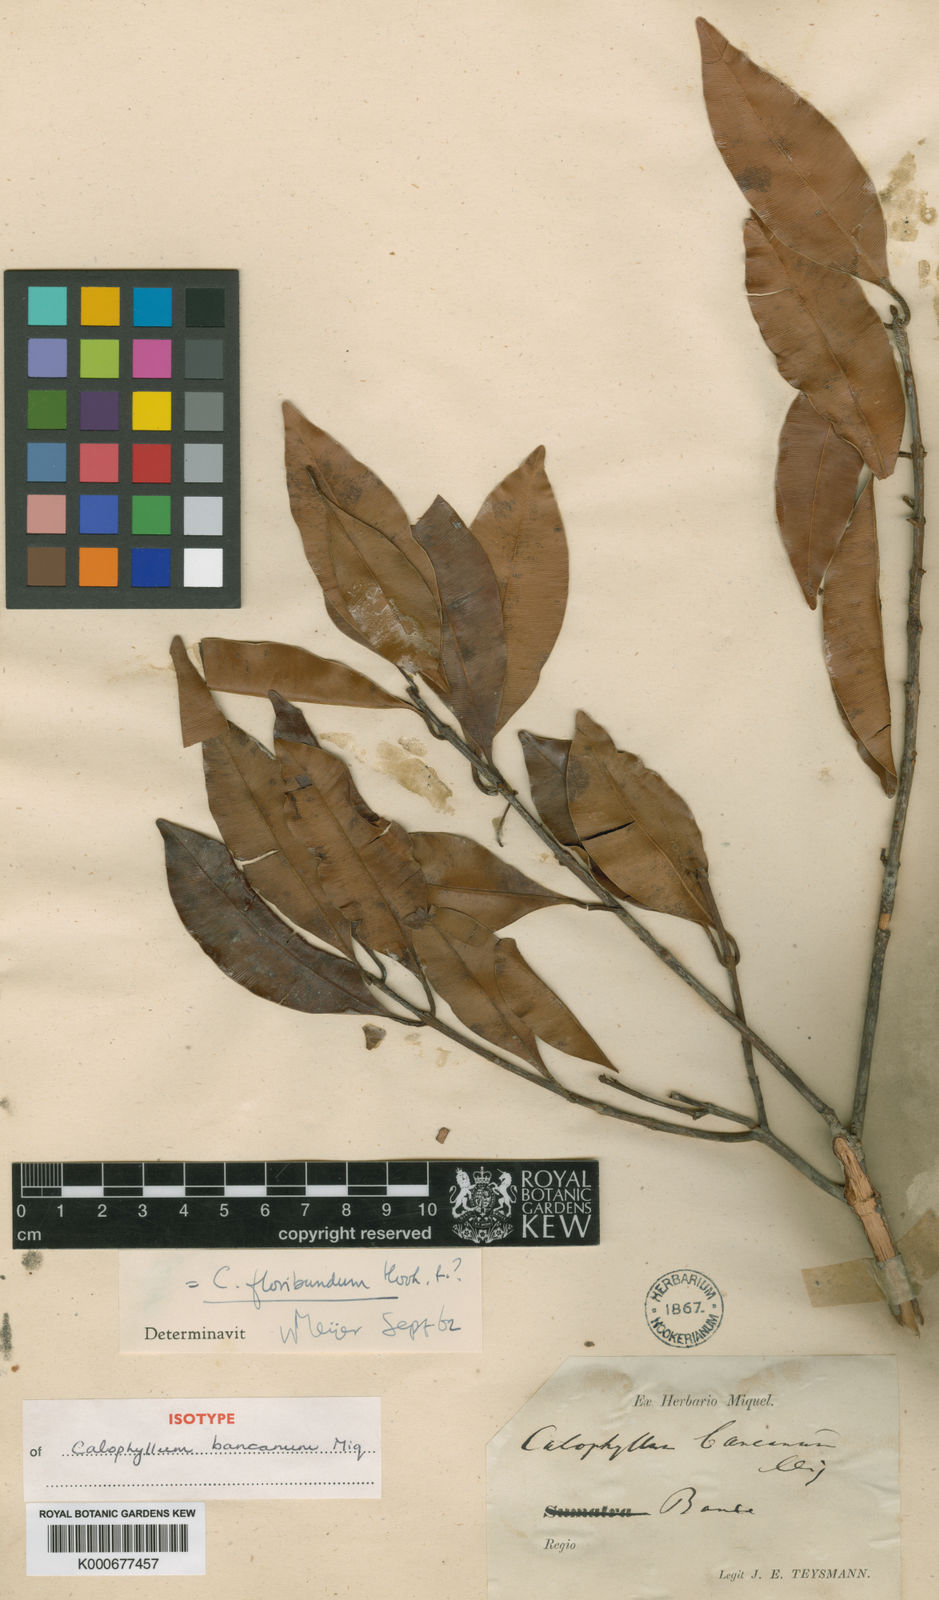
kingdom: Plantae
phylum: Tracheophyta
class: Magnoliopsida
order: Malpighiales
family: Calophyllaceae
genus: Calophyllum
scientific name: Calophyllum tetrapterum
